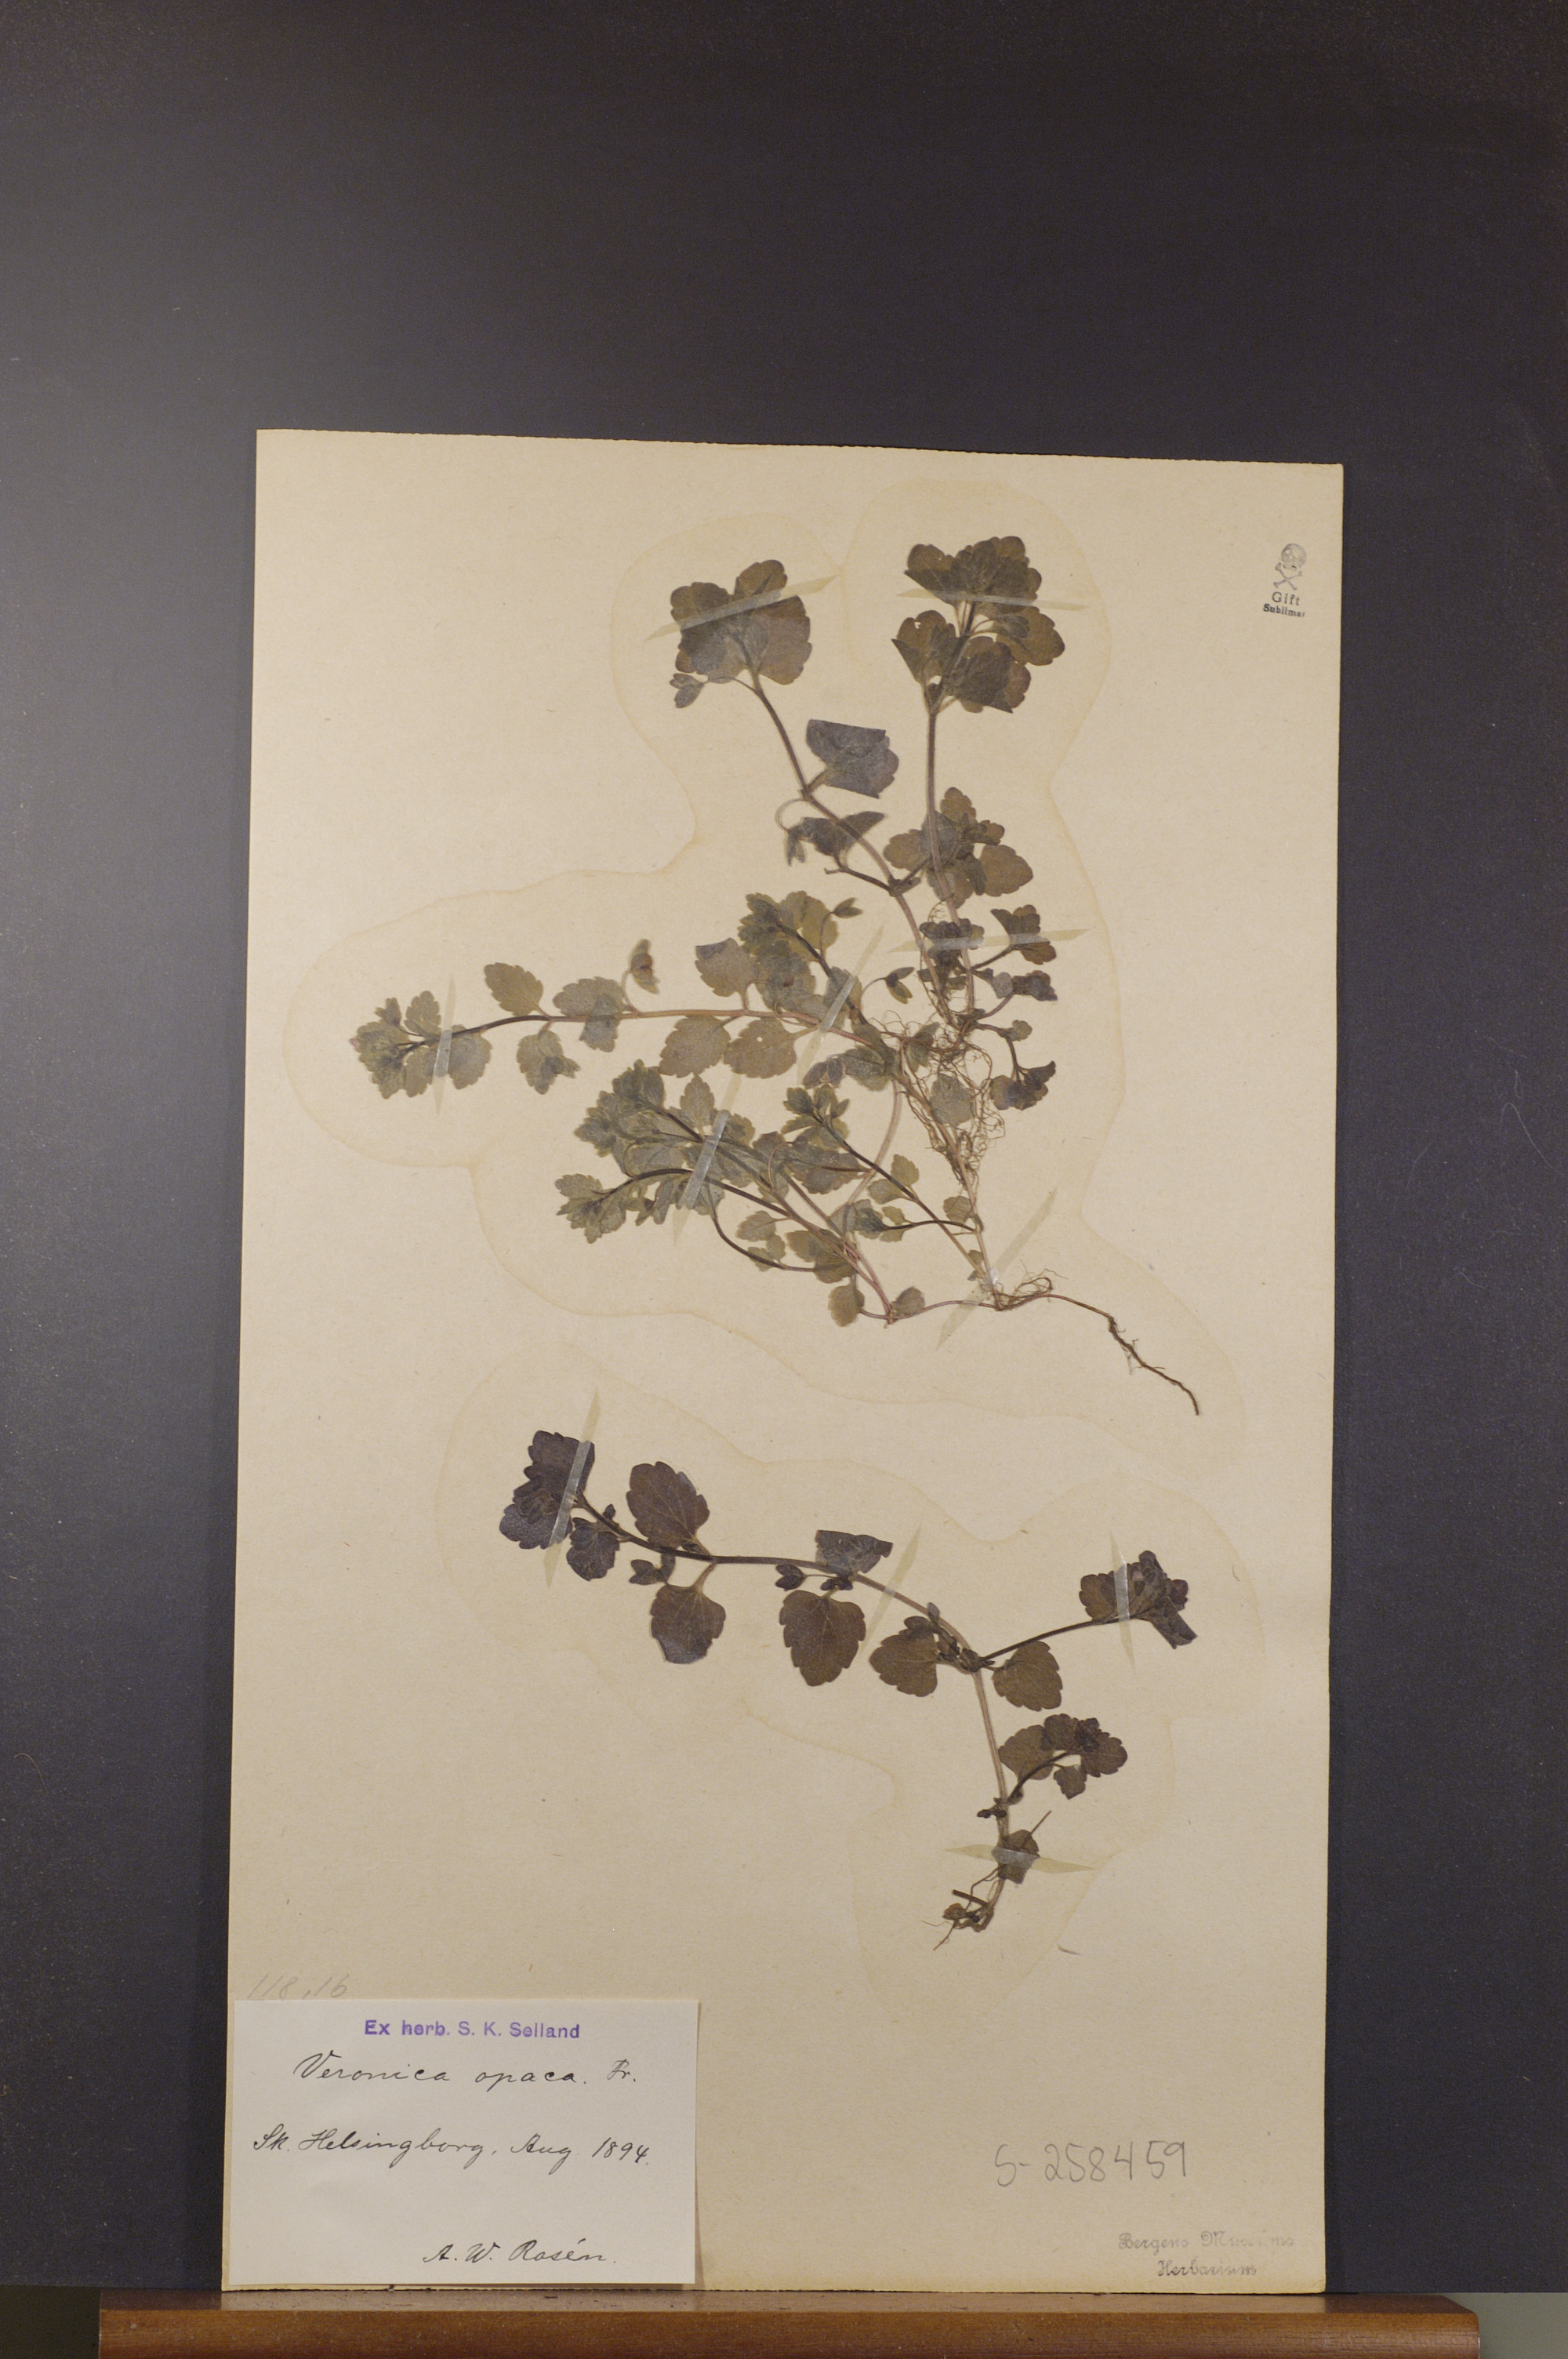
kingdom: Plantae
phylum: Tracheophyta
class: Magnoliopsida
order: Lamiales
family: Plantaginaceae
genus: Veronica
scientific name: Veronica opaca
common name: Dark speedwell
